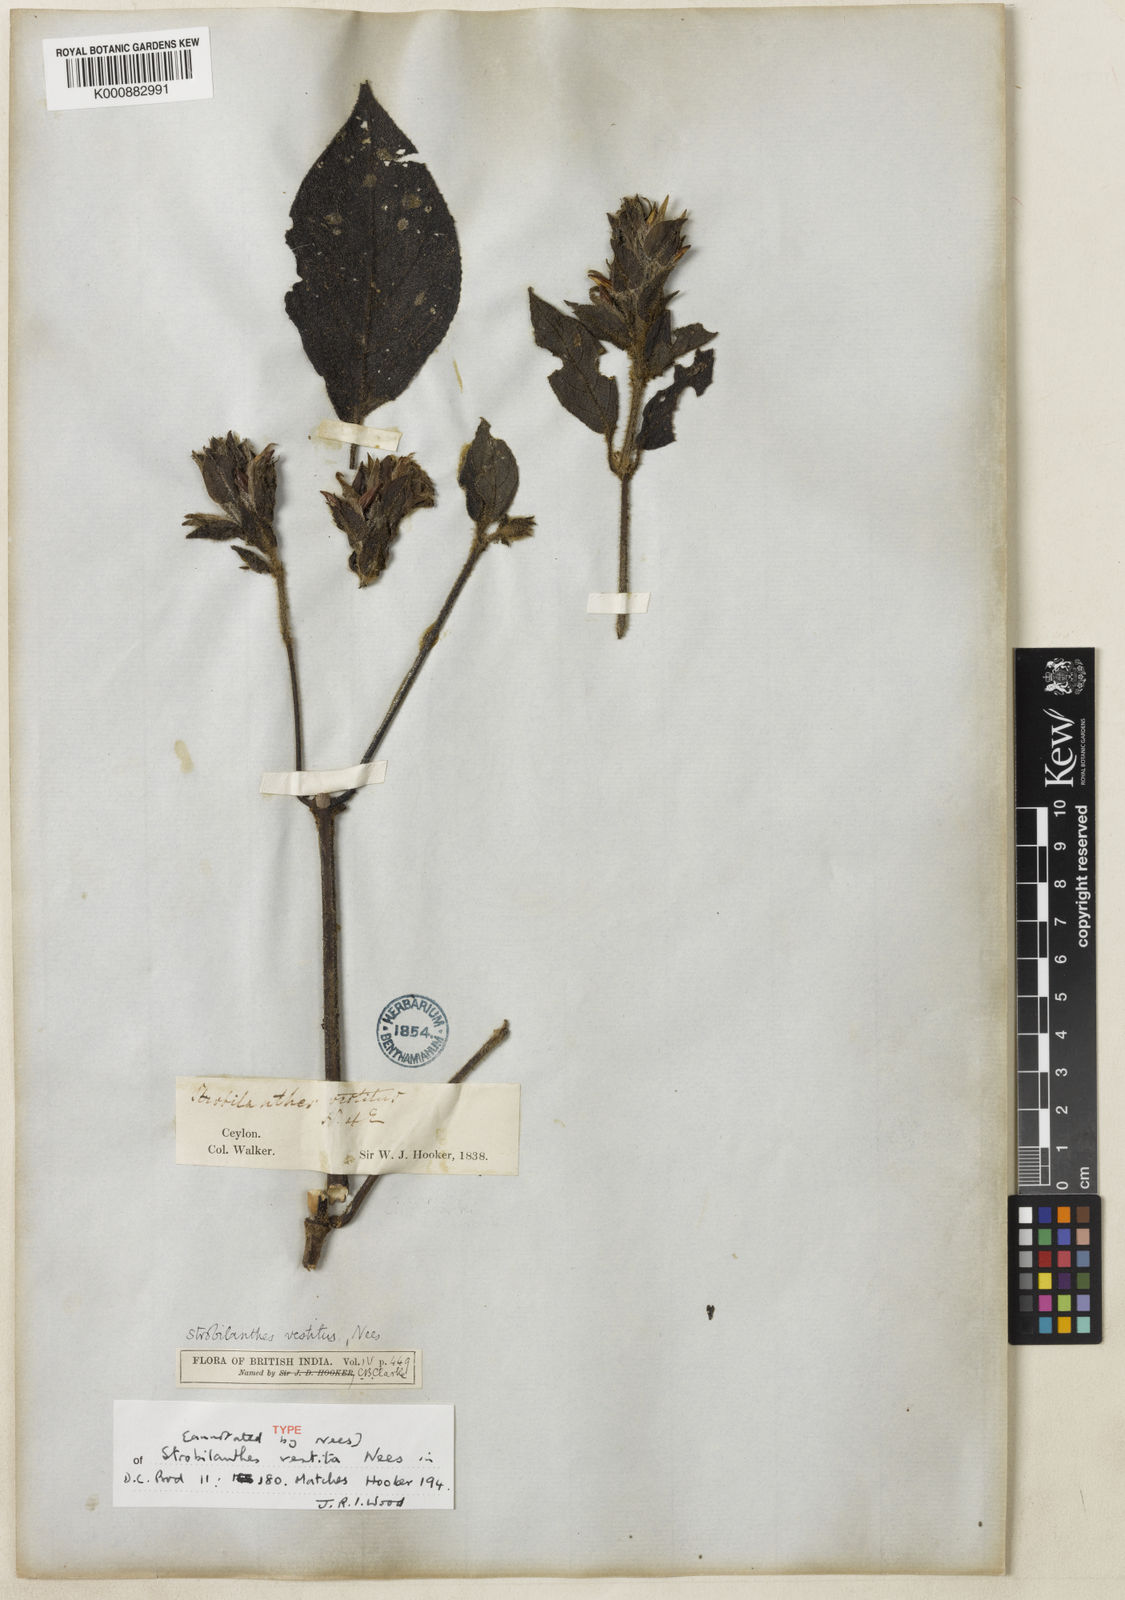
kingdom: Plantae
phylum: Tracheophyta
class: Magnoliopsida
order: Lamiales
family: Acanthaceae
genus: Strobilanthes
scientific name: Strobilanthes vestita
